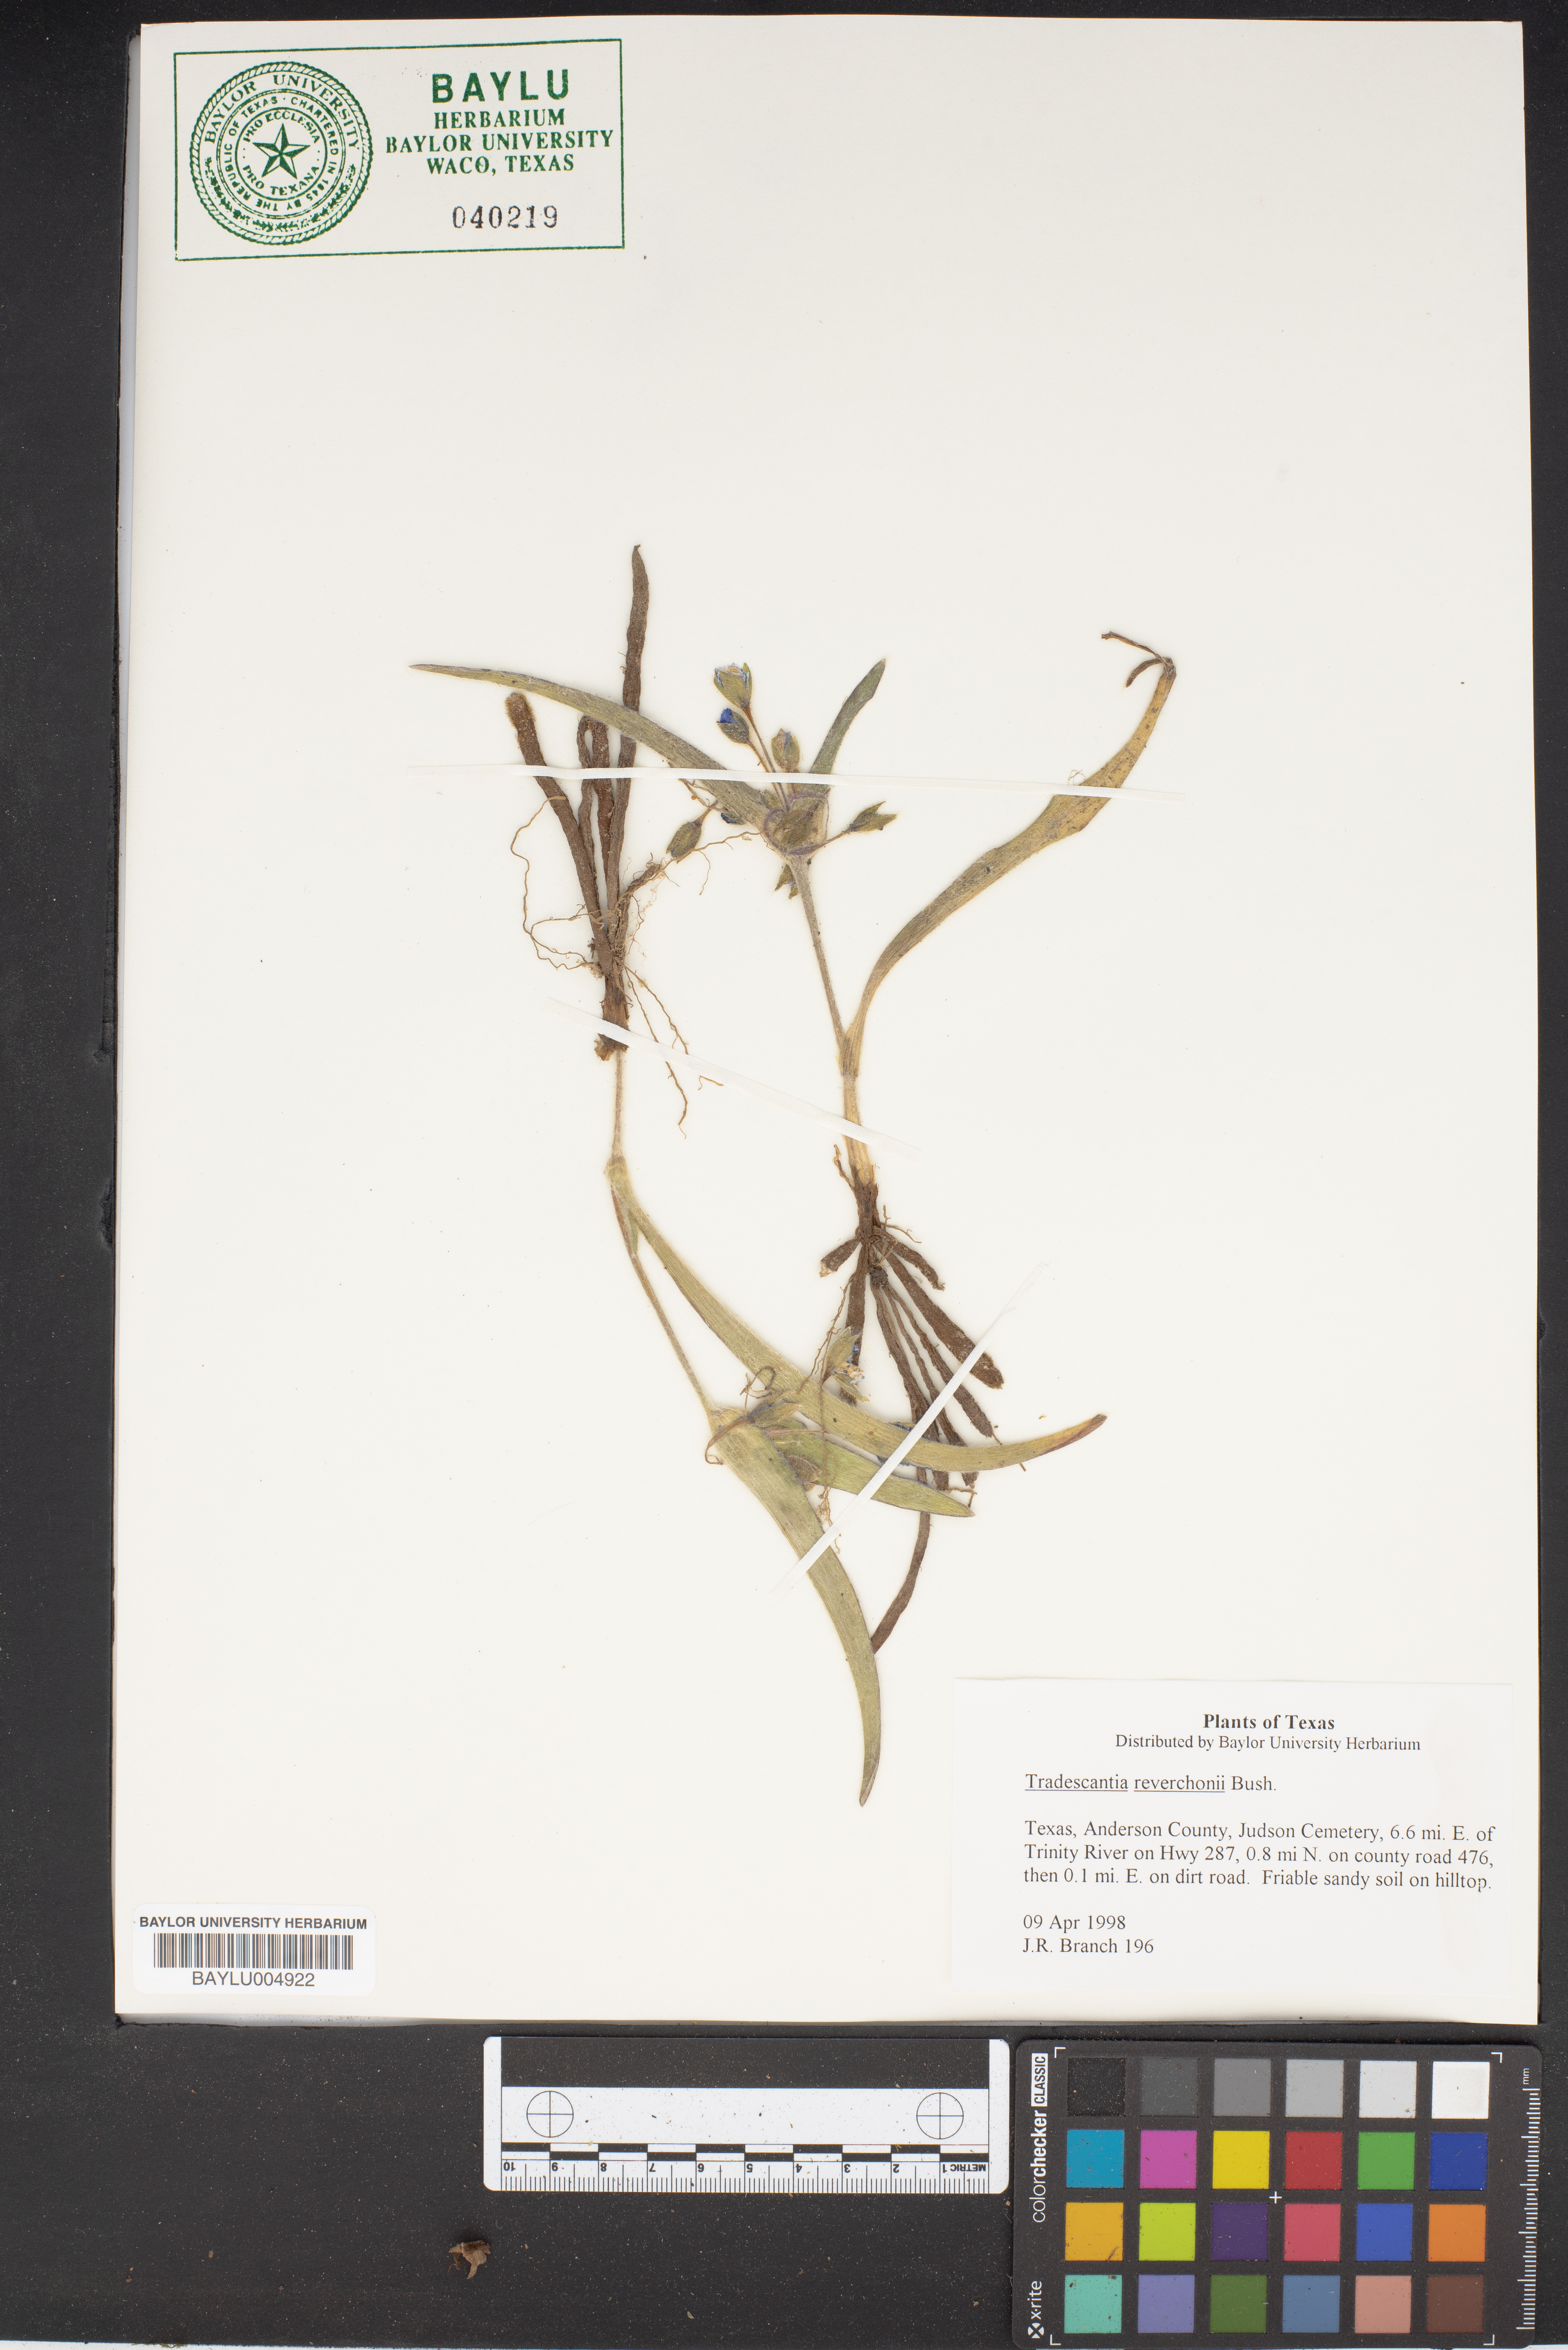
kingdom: Plantae
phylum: Tracheophyta
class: Liliopsida
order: Commelinales
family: Commelinaceae
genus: Tradescantia
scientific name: Tradescantia reverchonii
